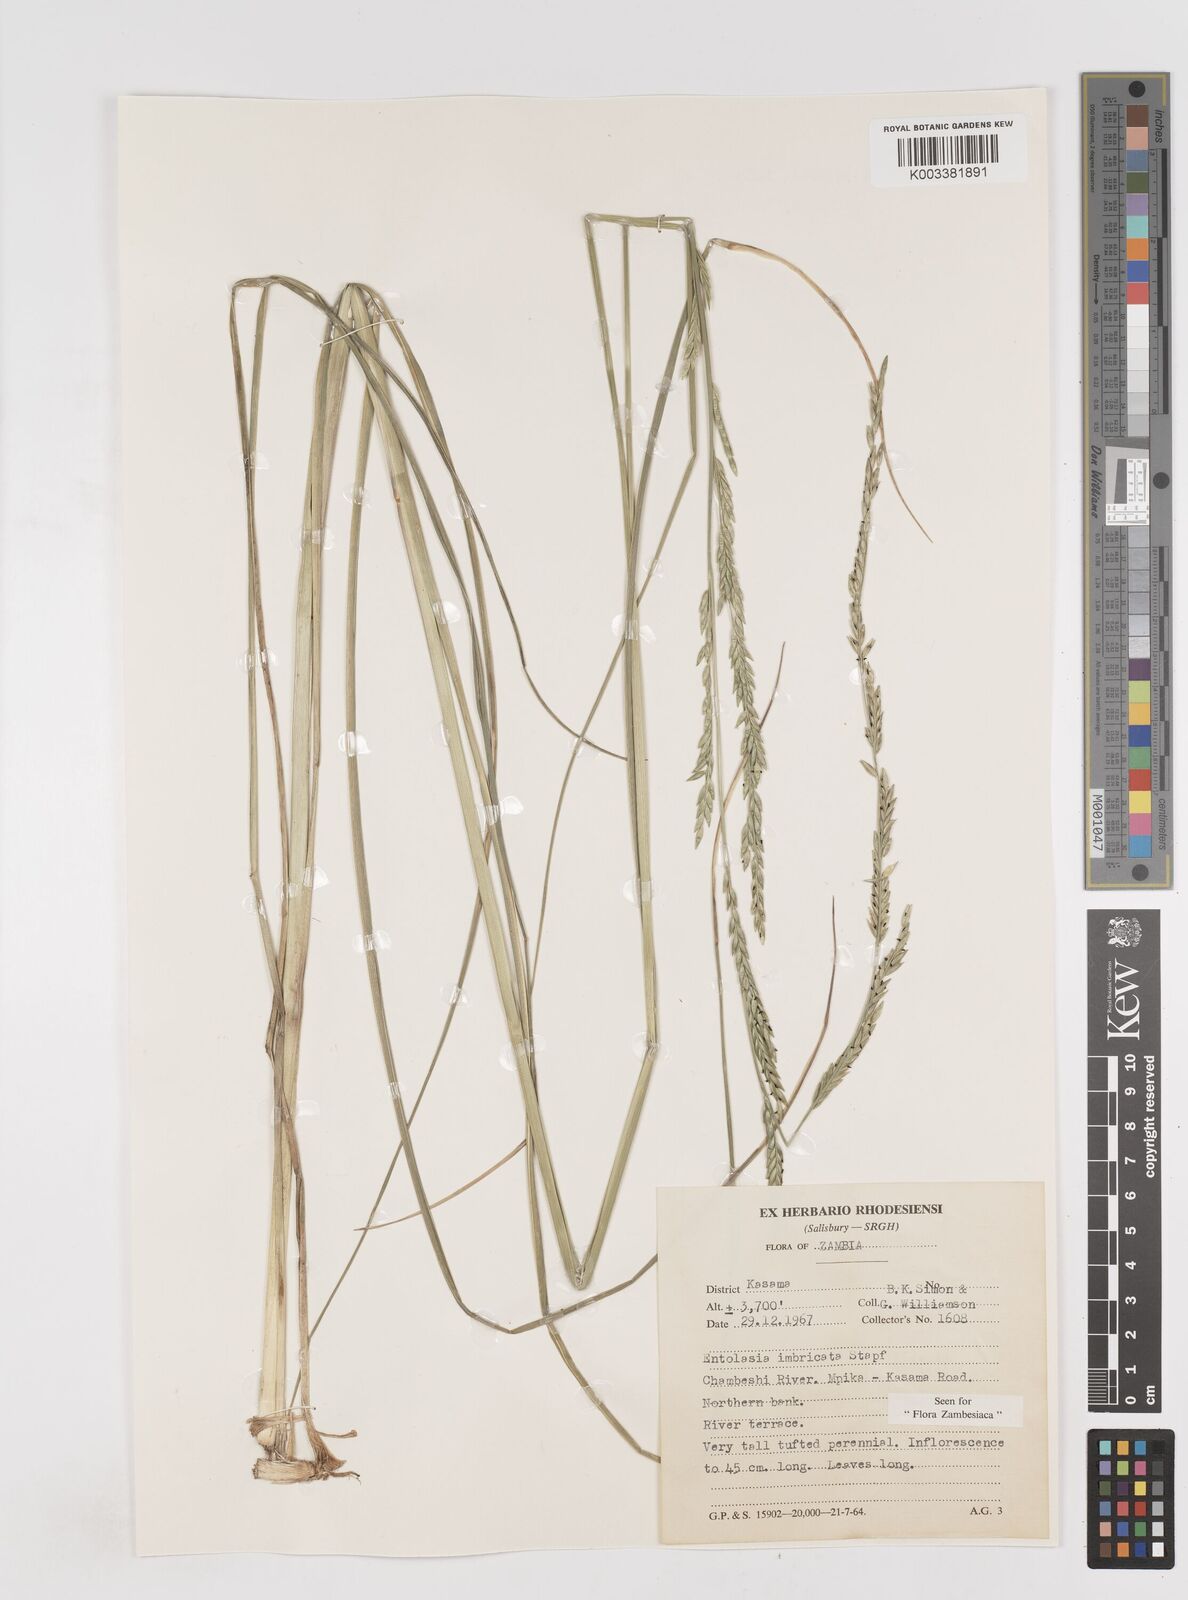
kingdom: Plantae
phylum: Tracheophyta
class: Liliopsida
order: Poales
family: Poaceae
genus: Entolasia
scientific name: Entolasia imbricata
